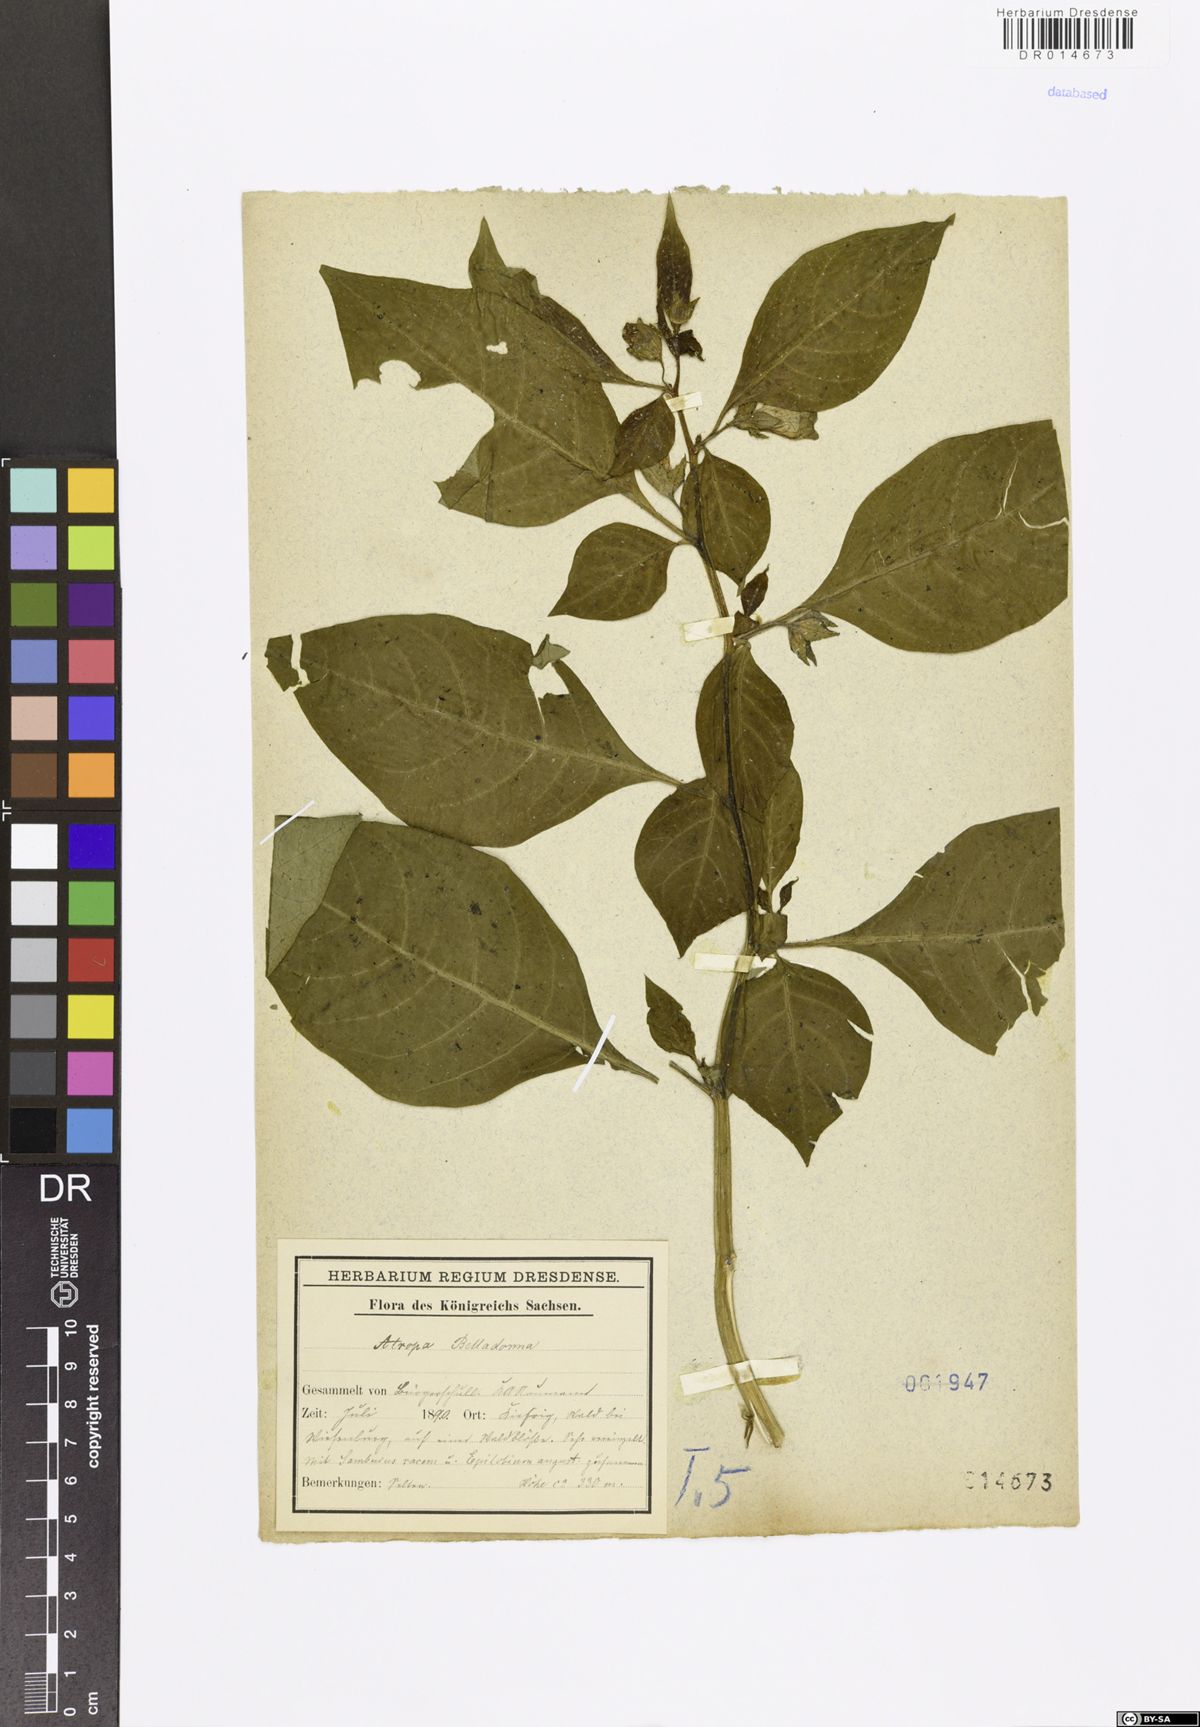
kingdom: Plantae
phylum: Tracheophyta
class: Magnoliopsida
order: Solanales
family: Solanaceae
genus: Atropa
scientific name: Atropa belladonna
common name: Deadly nightshade
